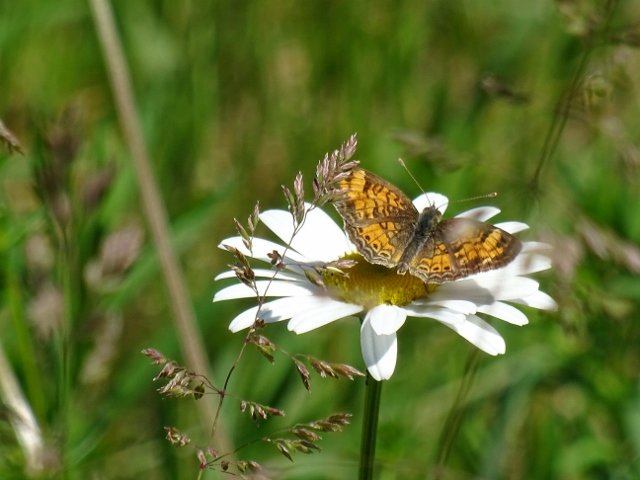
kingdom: Animalia
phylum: Arthropoda
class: Insecta
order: Lepidoptera
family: Nymphalidae
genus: Phyciodes
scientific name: Phyciodes tharos
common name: Northern Crescent
